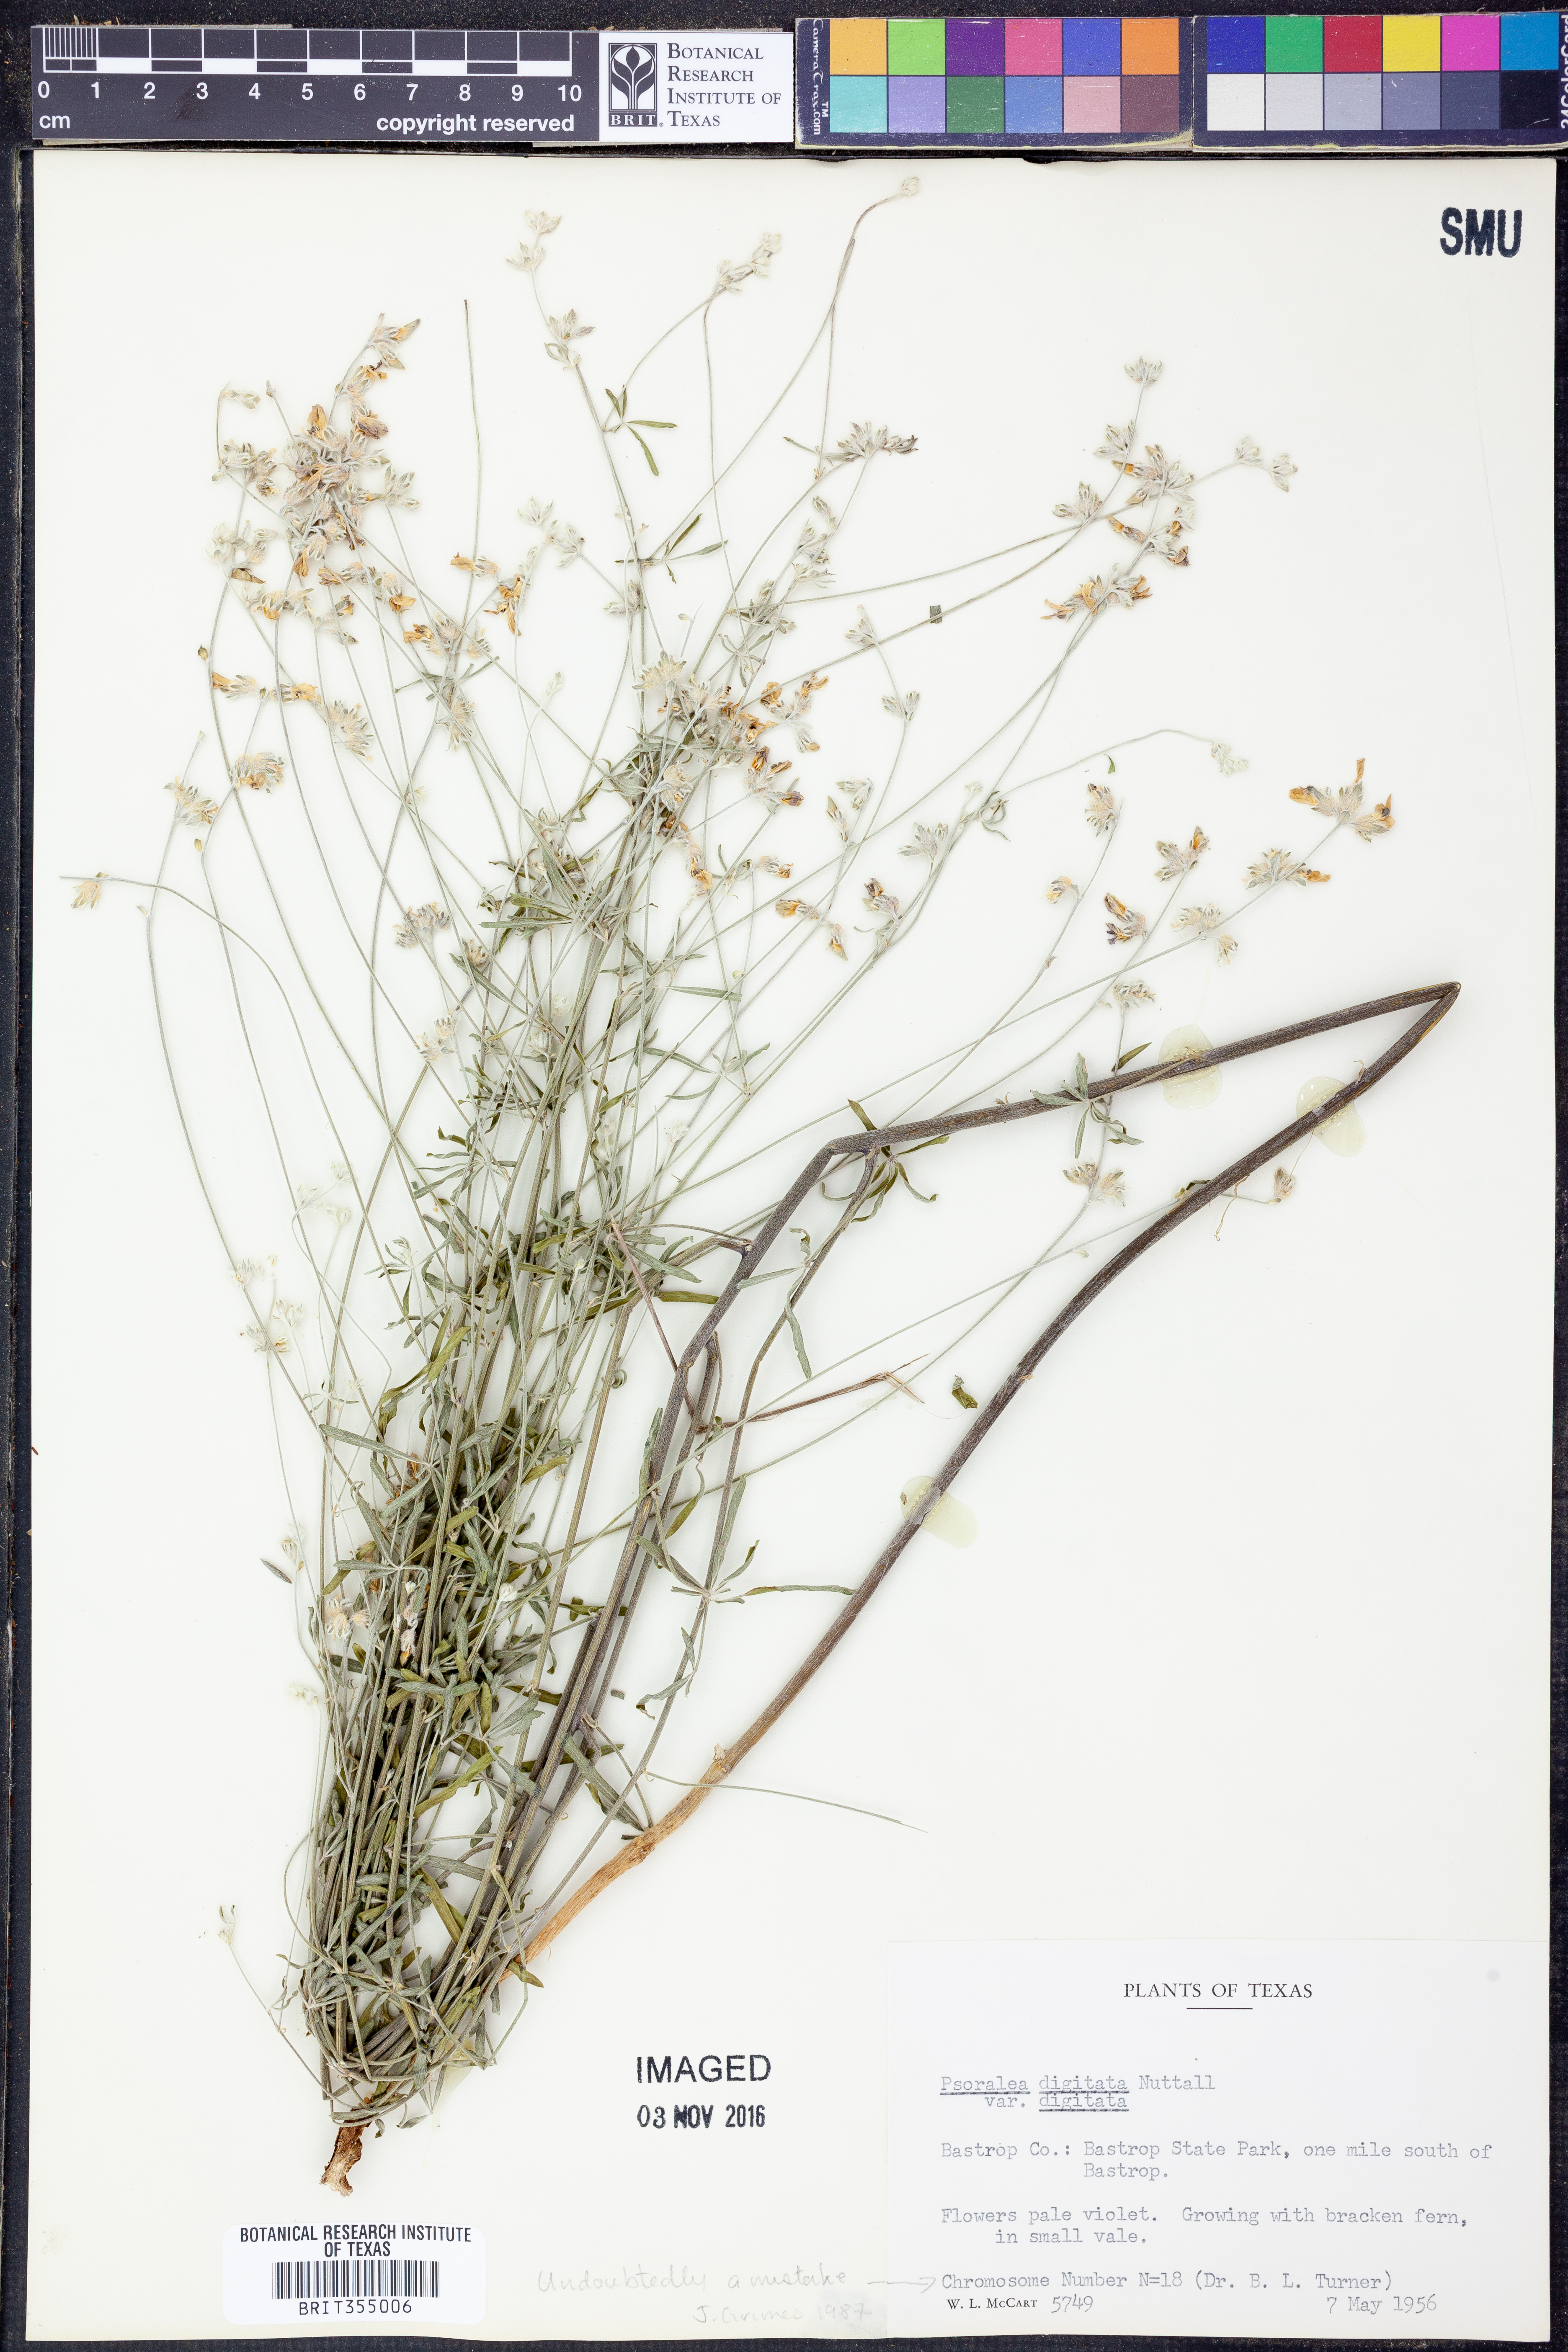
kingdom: Plantae
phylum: Tracheophyta
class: Magnoliopsida
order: Fabales
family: Fabaceae
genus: Pediomelum
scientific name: Pediomelum digitatum
